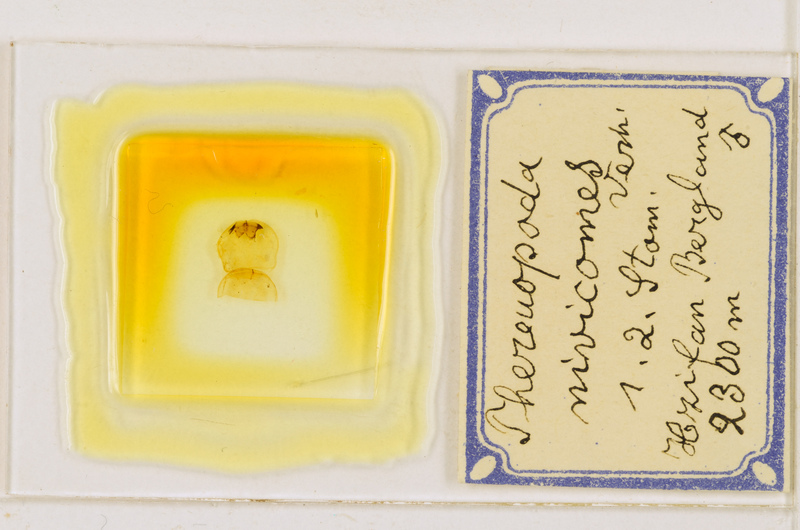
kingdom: Animalia
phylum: Arthropoda
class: Chilopoda
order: Scutigeromorpha
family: Scutigeridae
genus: Thereuopoda
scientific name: Thereuopoda longicornis
